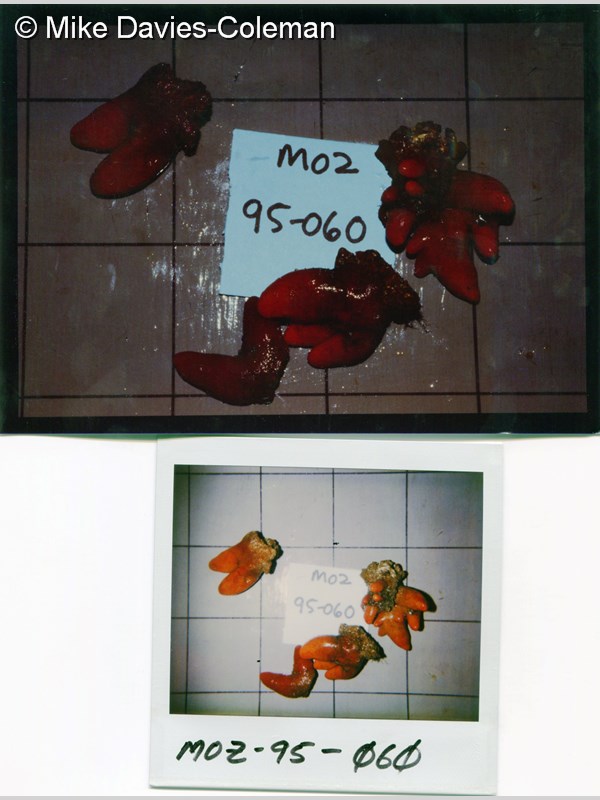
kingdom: Animalia
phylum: Chordata
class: Ascidiacea
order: Aplousobranchia
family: Pseudodistomidae
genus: Pseudodistoma
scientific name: Pseudodistoma
